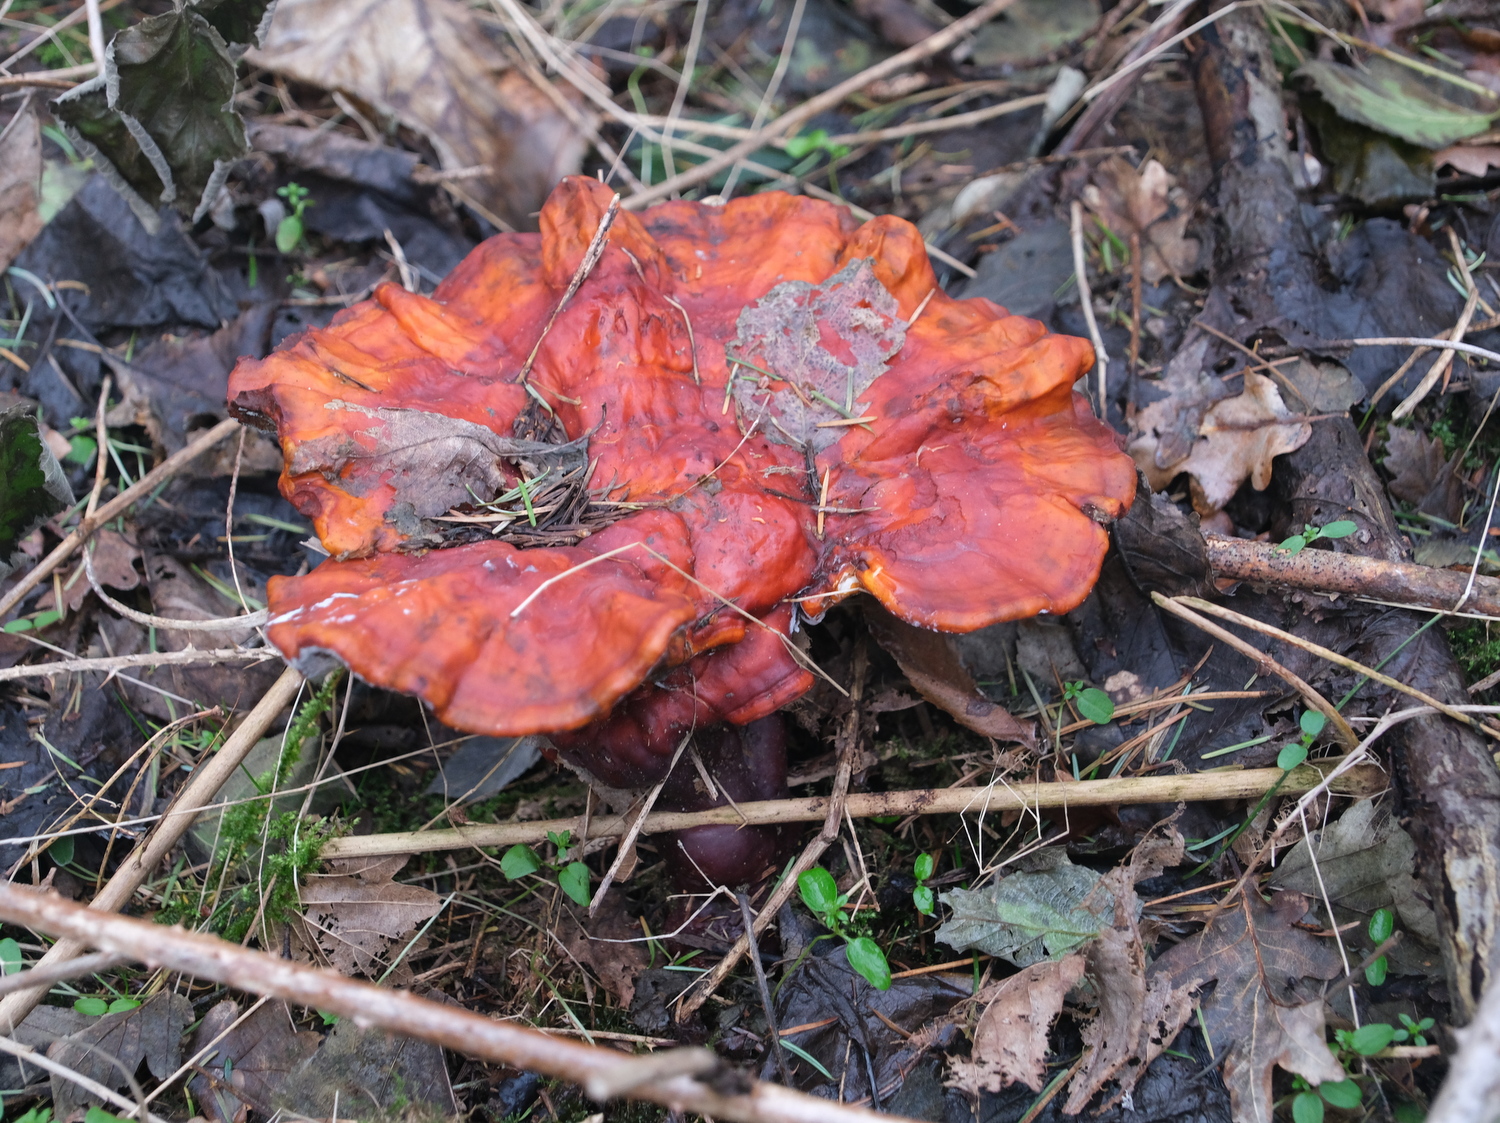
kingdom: Fungi
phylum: Basidiomycota
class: Agaricomycetes
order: Polyporales
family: Polyporaceae
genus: Ganoderma
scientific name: Ganoderma lucidum
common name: skinnende lakporesvamp
